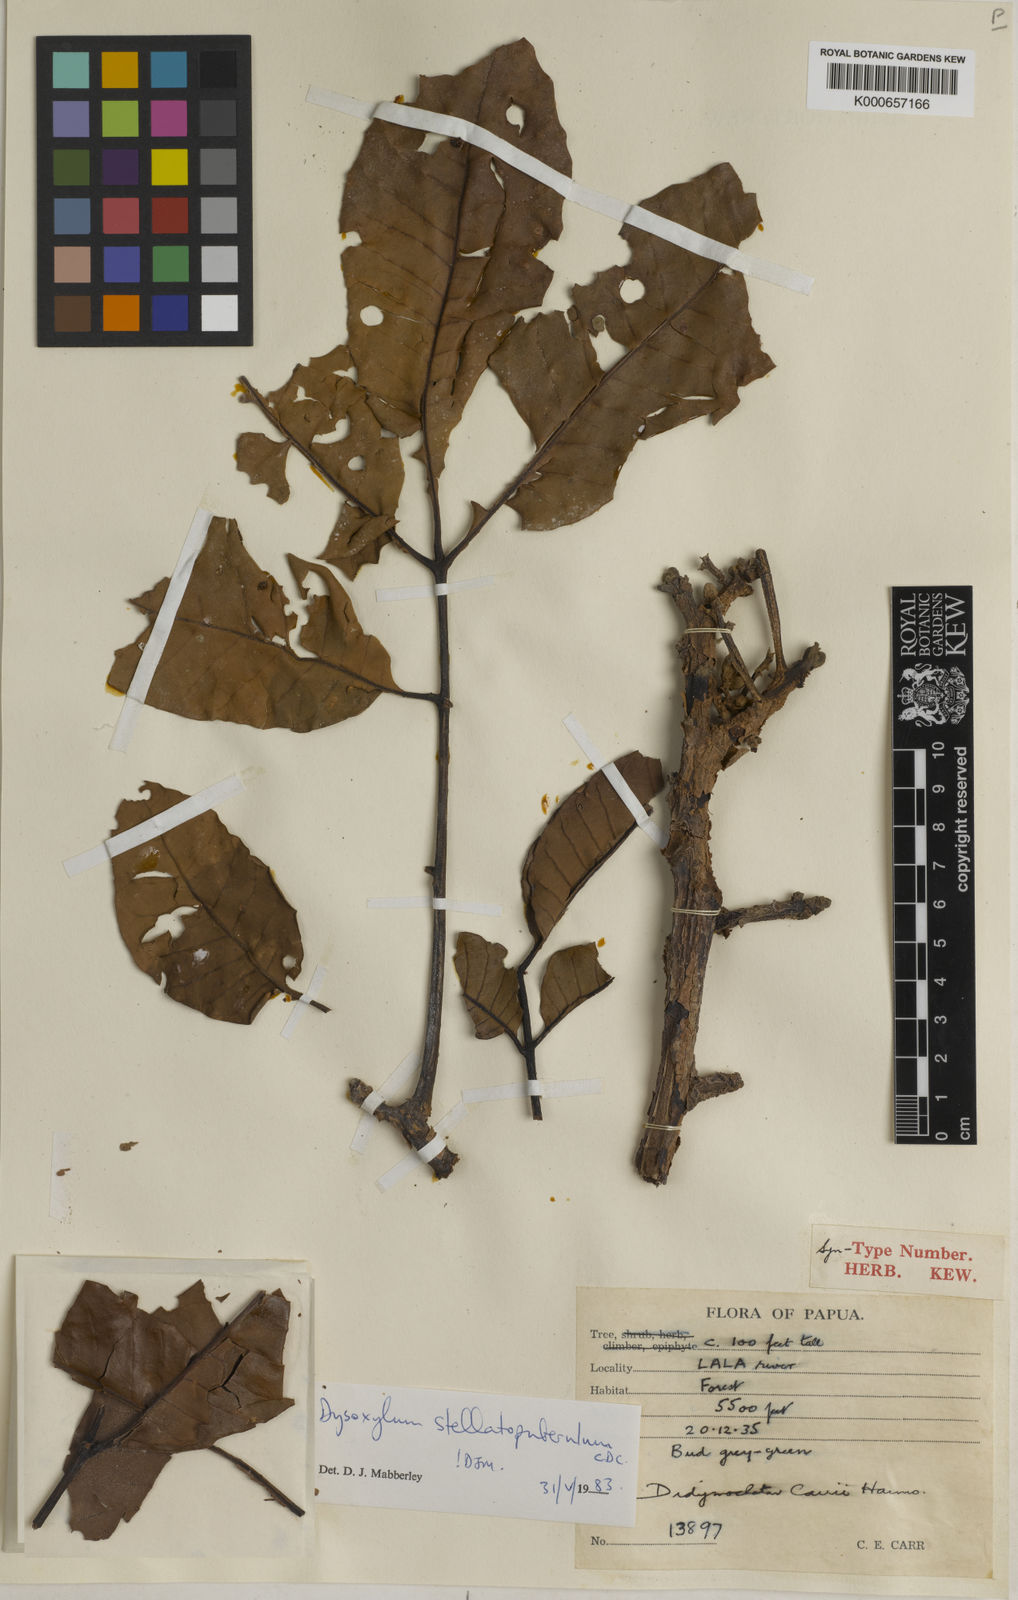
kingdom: Plantae
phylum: Tracheophyta
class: Magnoliopsida
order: Sapindales
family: Meliaceae
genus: Didymocheton
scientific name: Didymocheton stellatopuberulus
